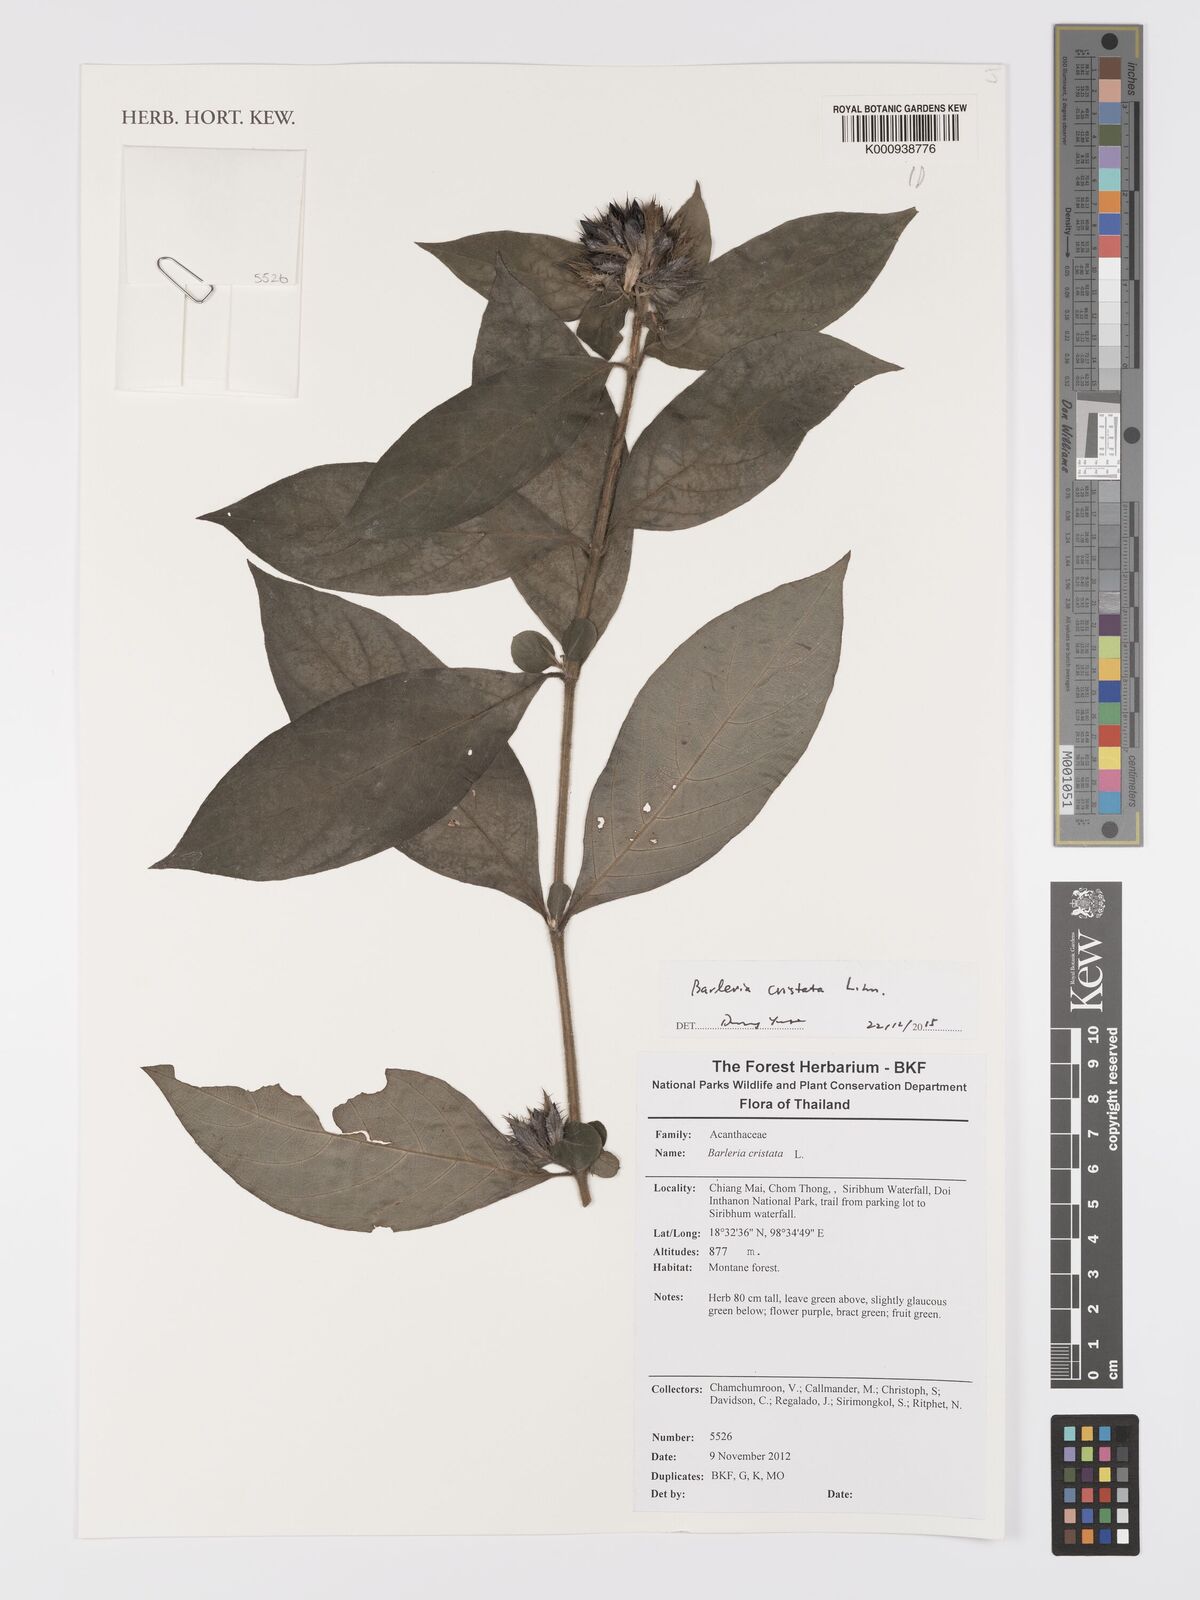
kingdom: Plantae
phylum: Tracheophyta
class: Magnoliopsida
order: Lamiales
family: Acanthaceae
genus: Barleria
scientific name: Barleria
